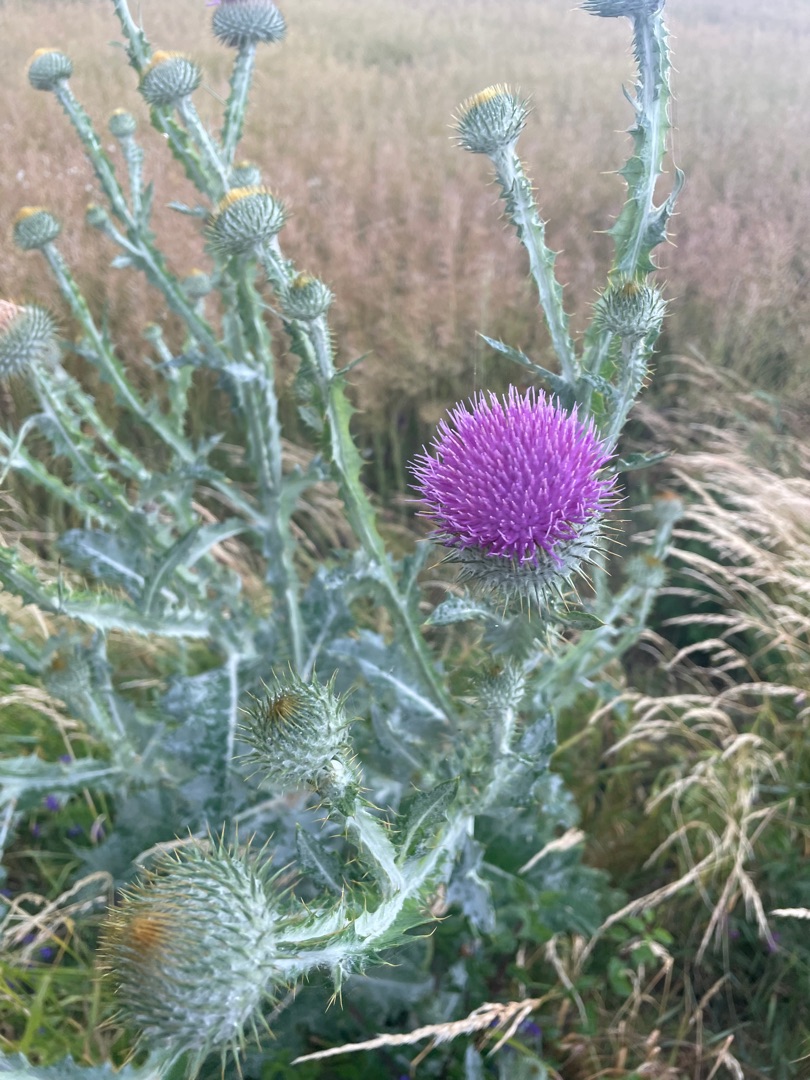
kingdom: Plantae
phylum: Tracheophyta
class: Magnoliopsida
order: Asterales
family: Asteraceae
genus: Onopordum
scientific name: Onopordum acanthium
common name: Æselfoder
